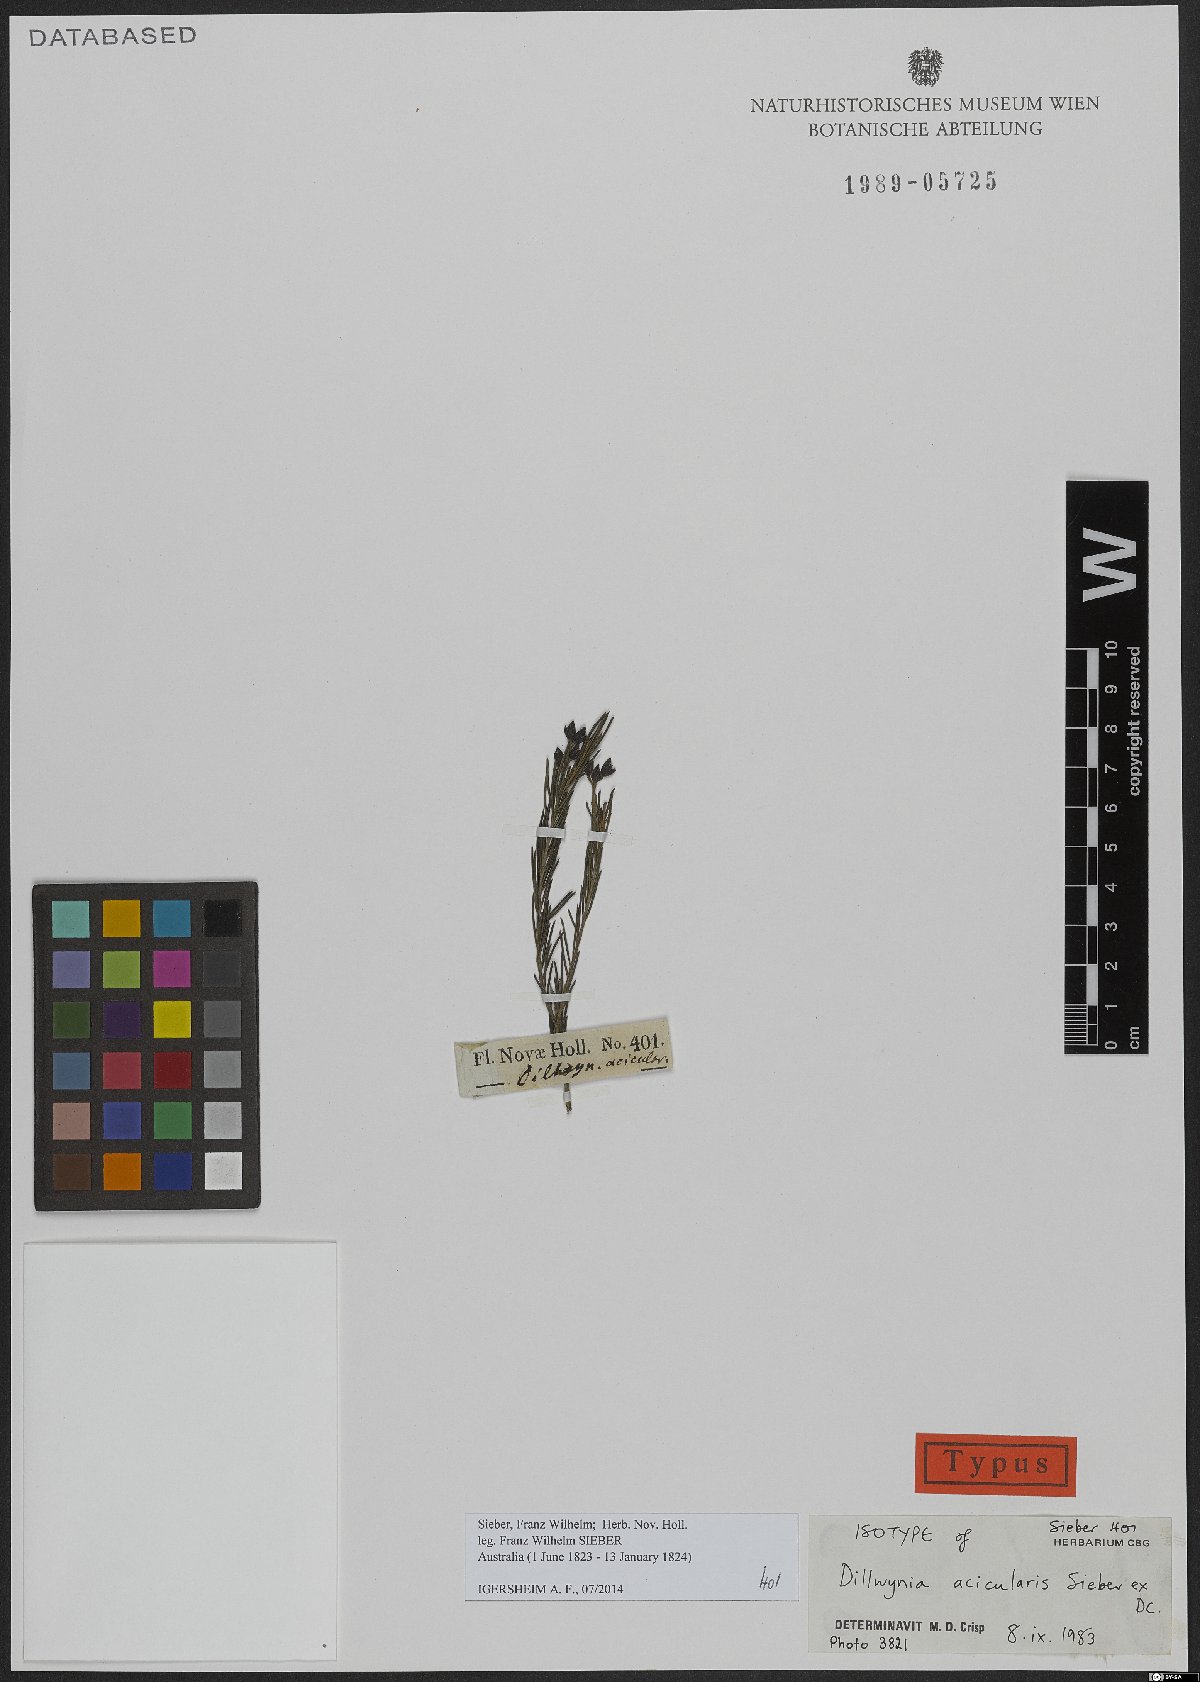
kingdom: Plantae
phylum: Tracheophyta
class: Magnoliopsida
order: Fabales
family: Fabaceae
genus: Dillwynia
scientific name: Dillwynia acicularis
